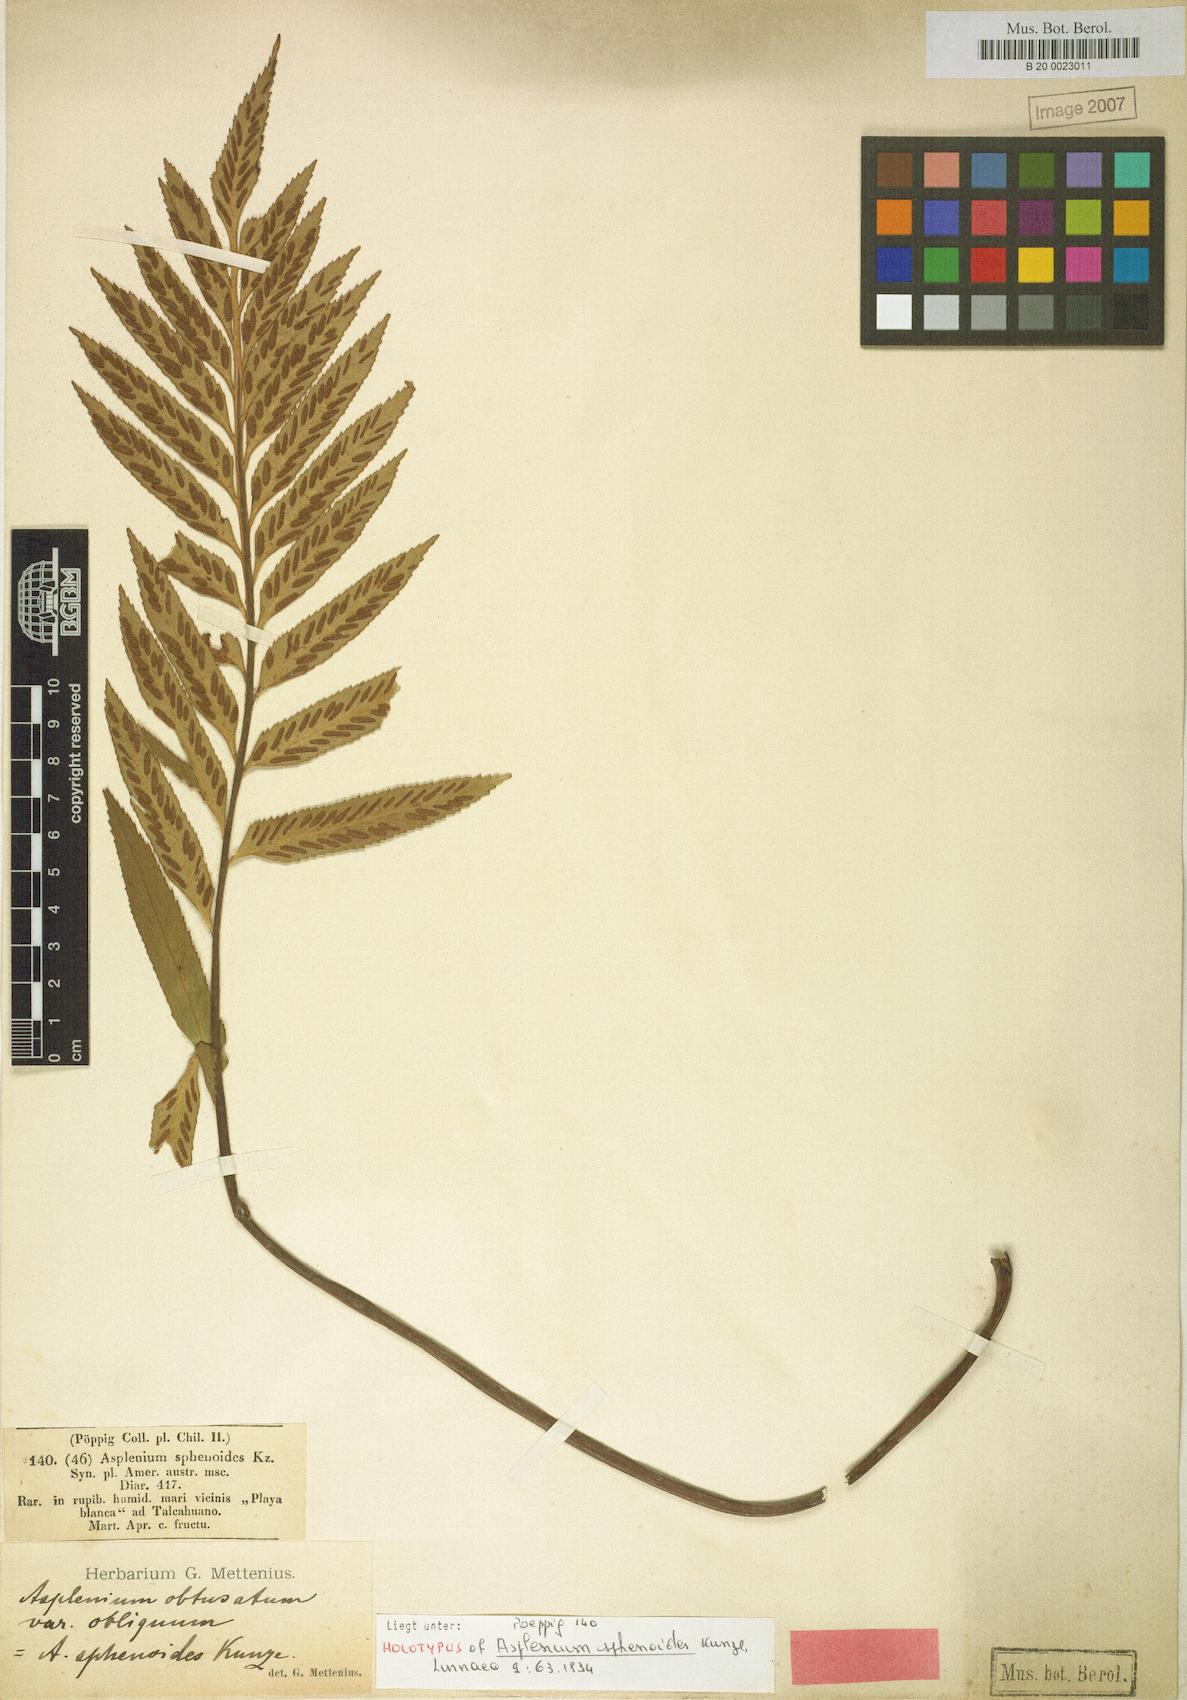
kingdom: Plantae
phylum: Tracheophyta
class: Polypodiopsida
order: Polypodiales
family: Aspleniaceae
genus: Asplenium
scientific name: Asplenium obtusatum
